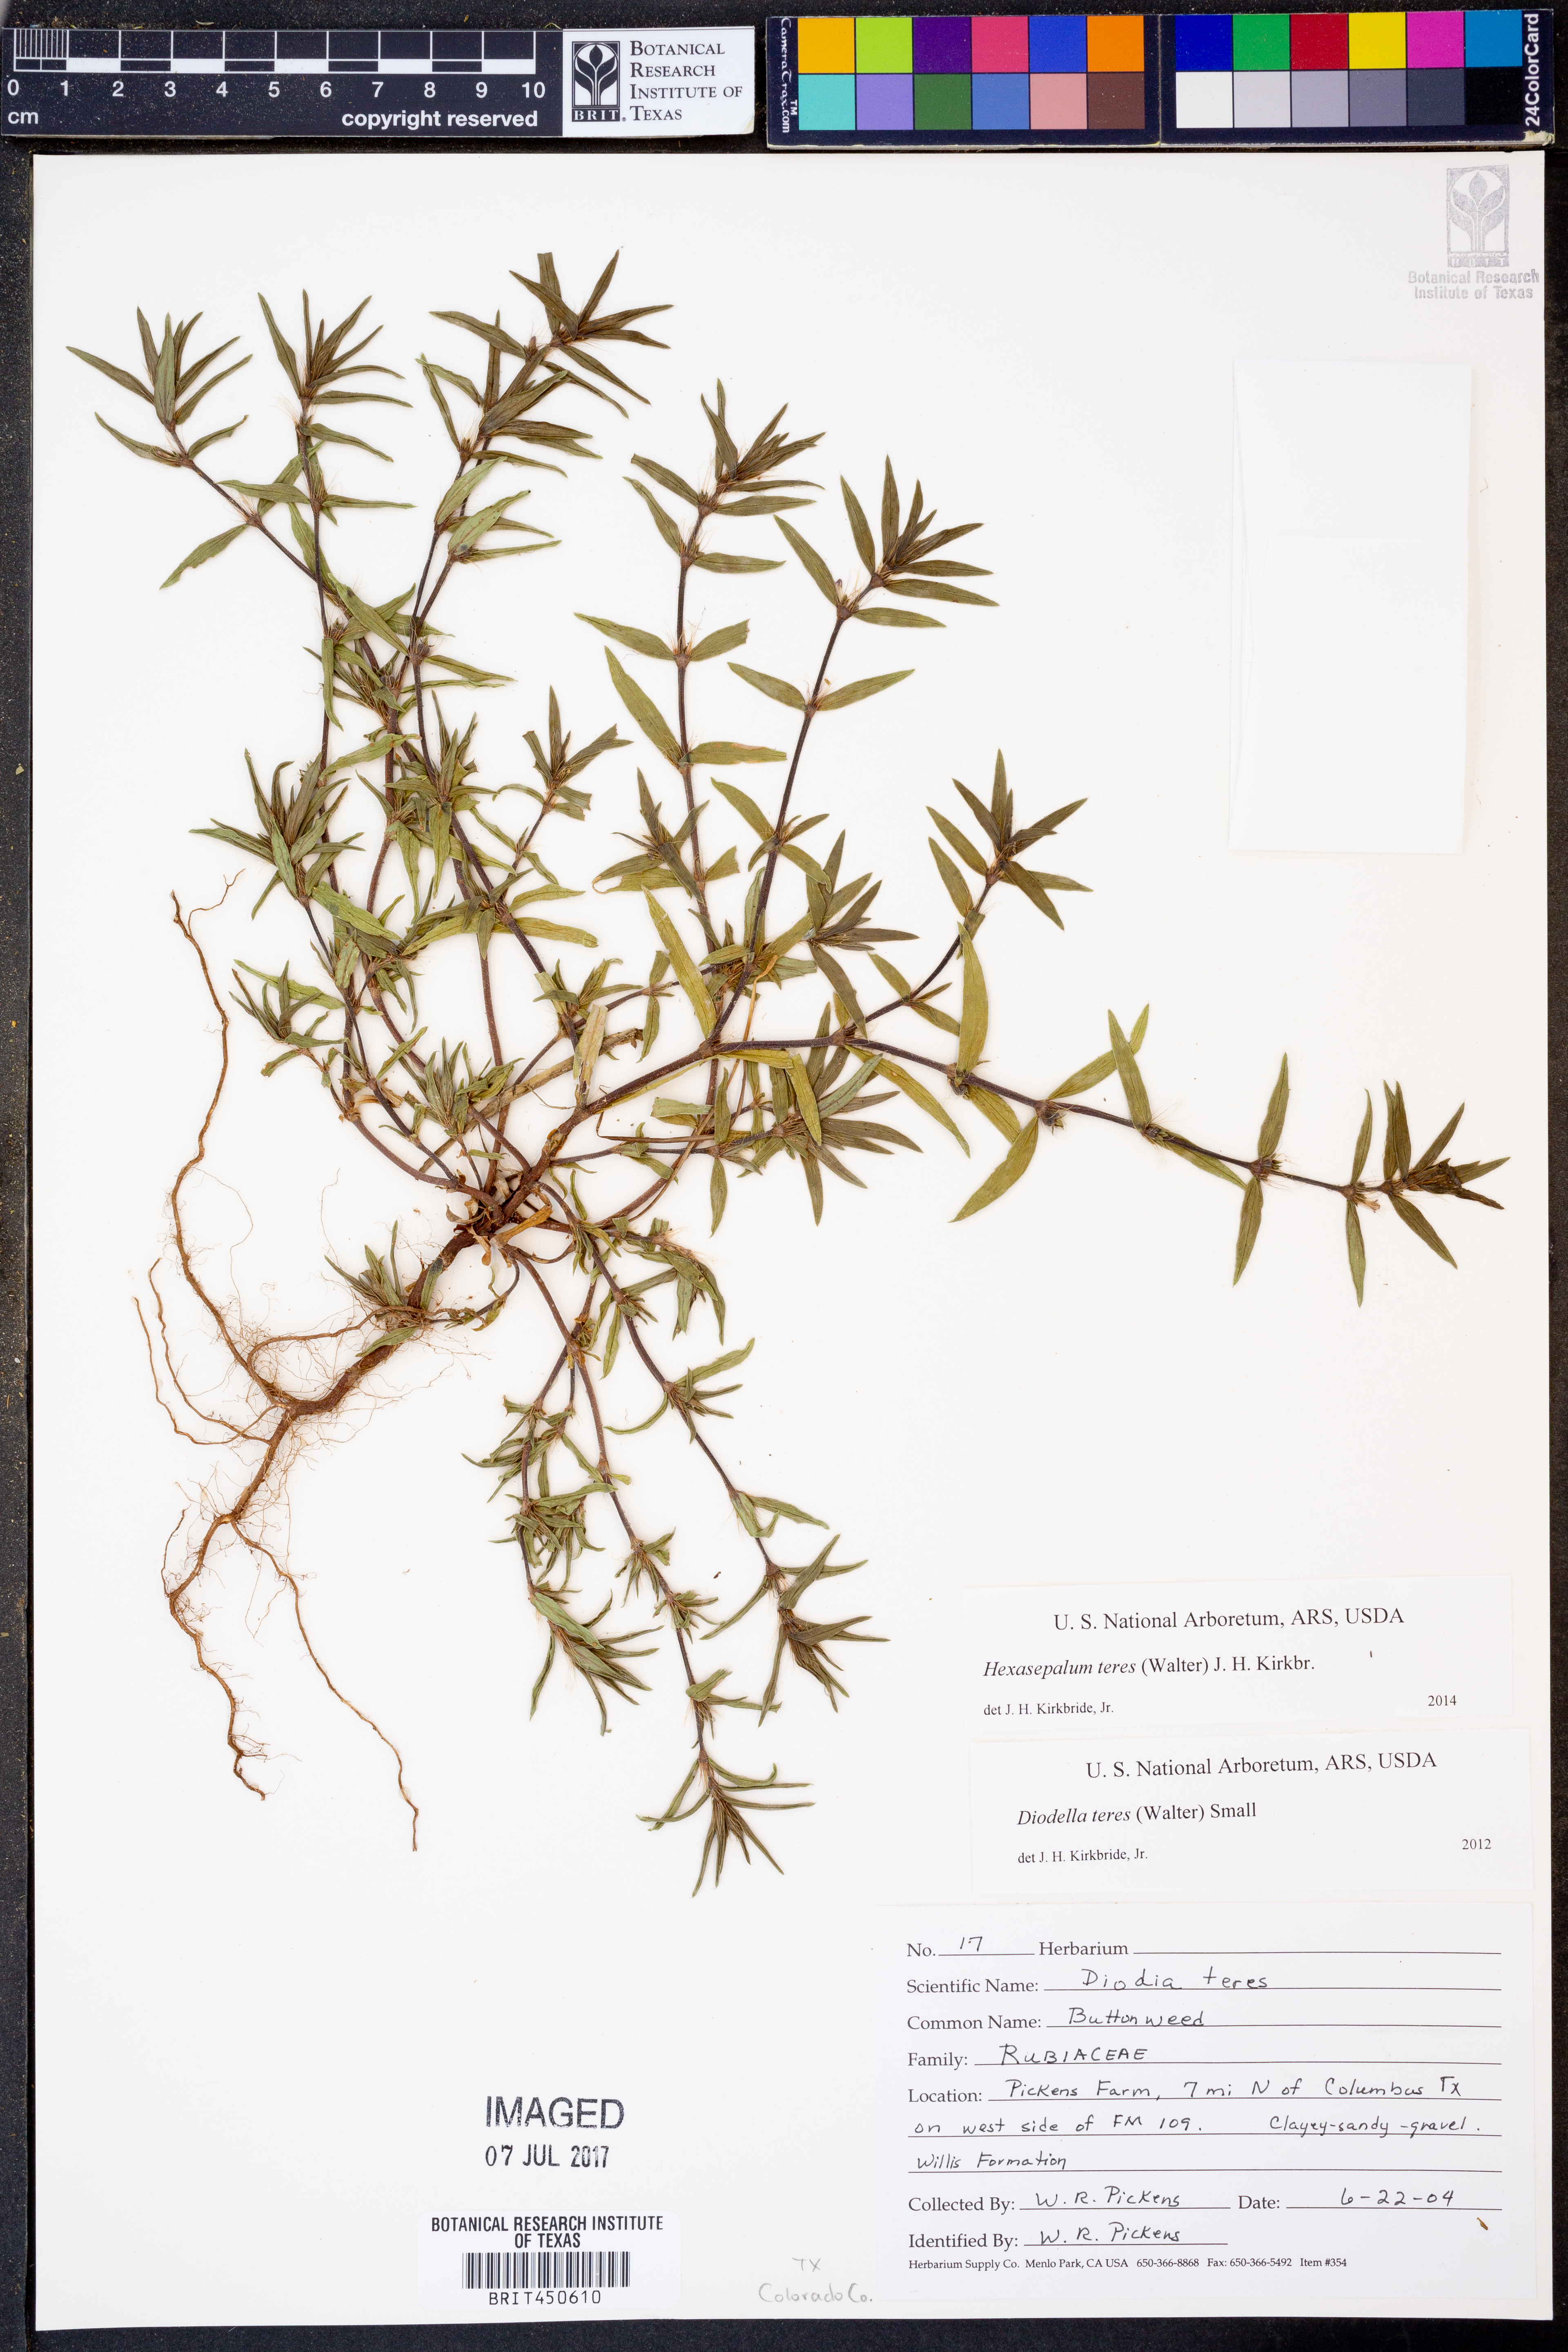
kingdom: Plantae
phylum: Tracheophyta
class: Magnoliopsida
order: Gentianales
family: Rubiaceae
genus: Hexasepalum
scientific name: Hexasepalum teres
